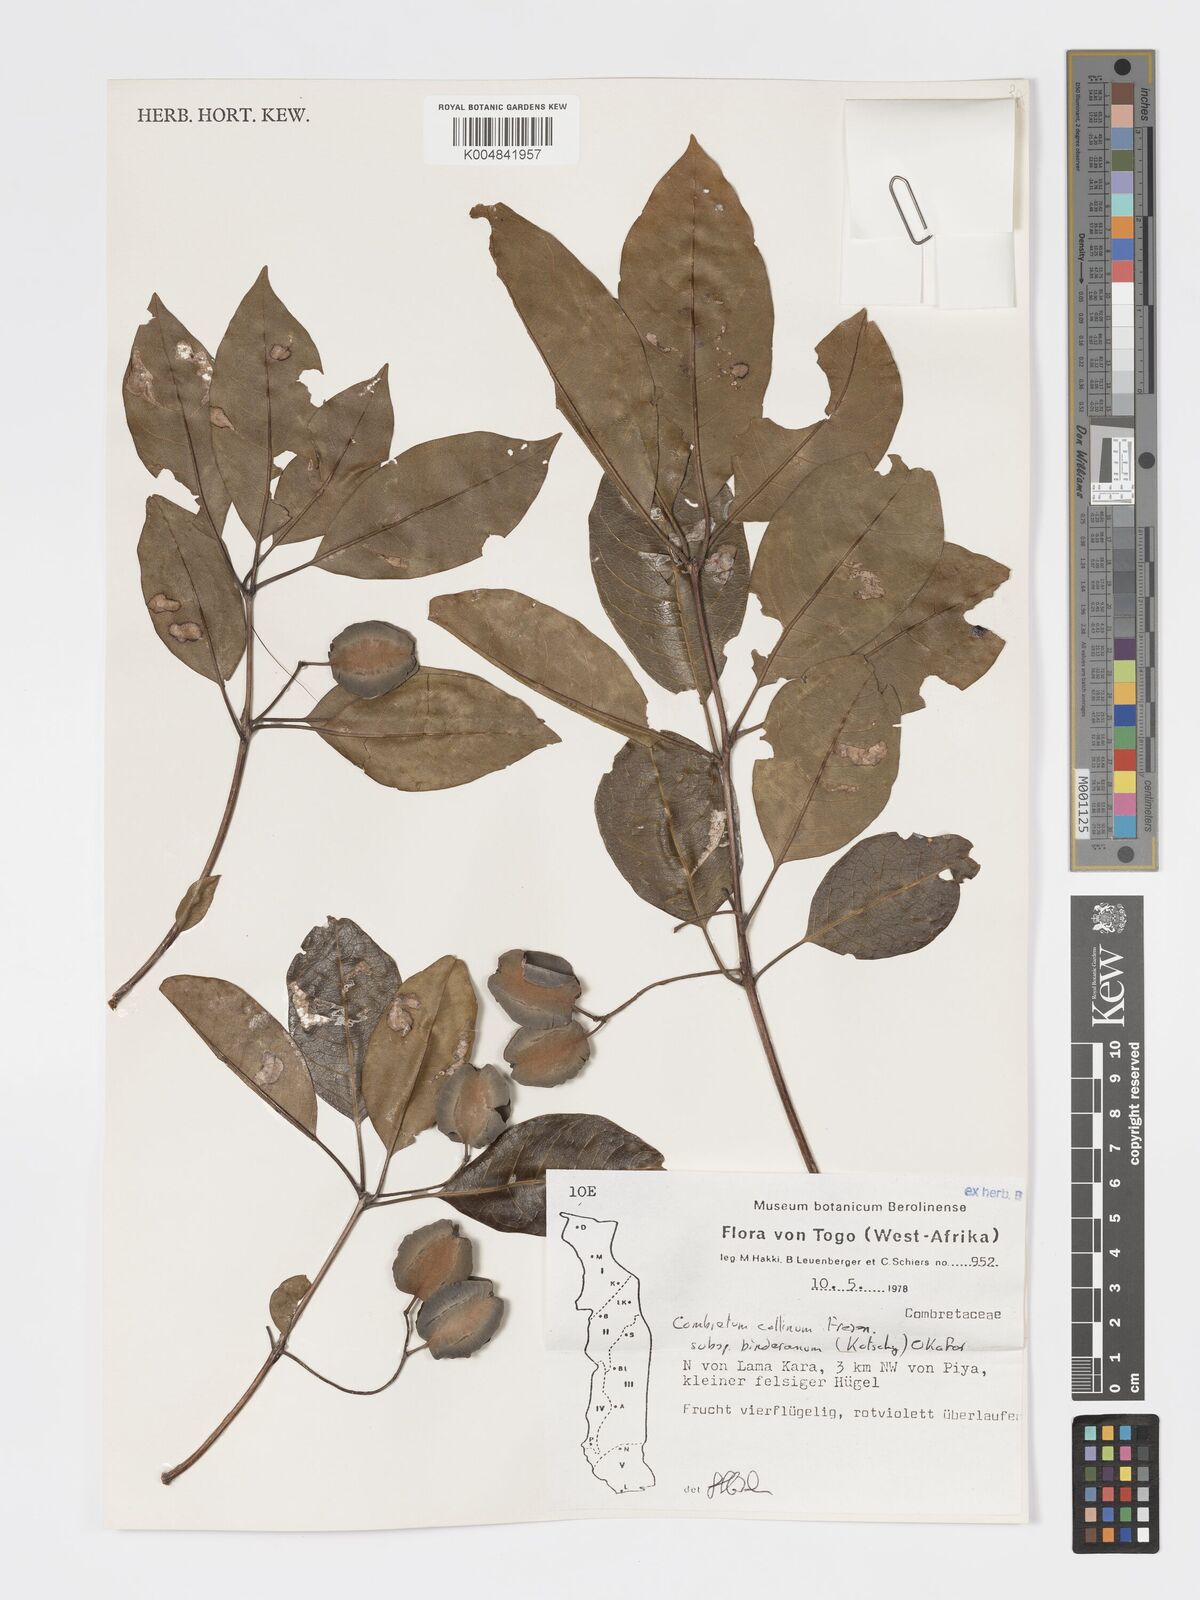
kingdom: Plantae
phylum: Tracheophyta
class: Magnoliopsida
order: Myrtales
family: Combretaceae
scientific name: Combretaceae
